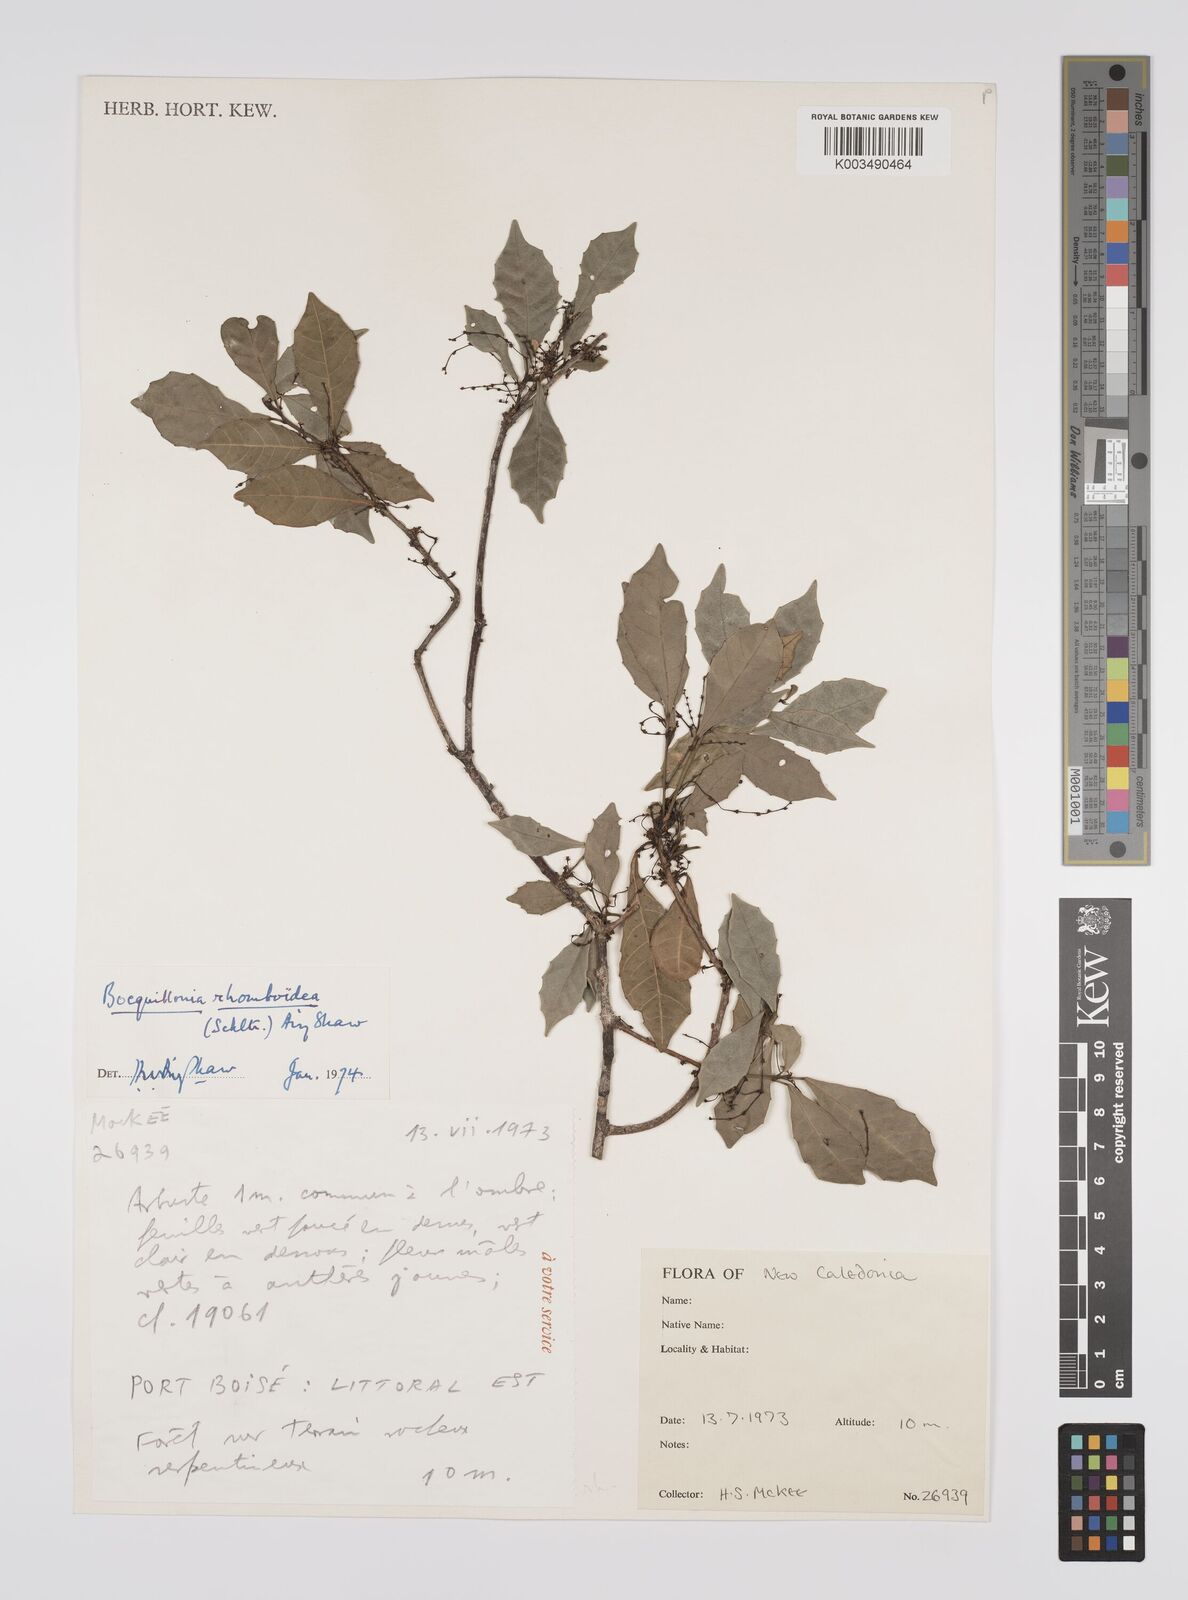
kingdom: Plantae
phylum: Tracheophyta
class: Magnoliopsida
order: Malpighiales
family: Euphorbiaceae
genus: Bocquillonia
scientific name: Bocquillonia rhomboidea
